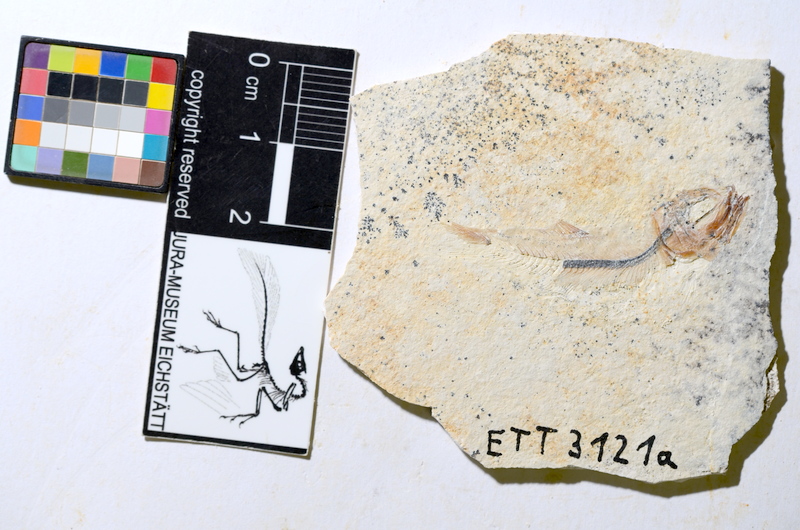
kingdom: Animalia
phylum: Chordata
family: Ascalaboidae
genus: Ebertichthys
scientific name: Ebertichthys ettlingensis
